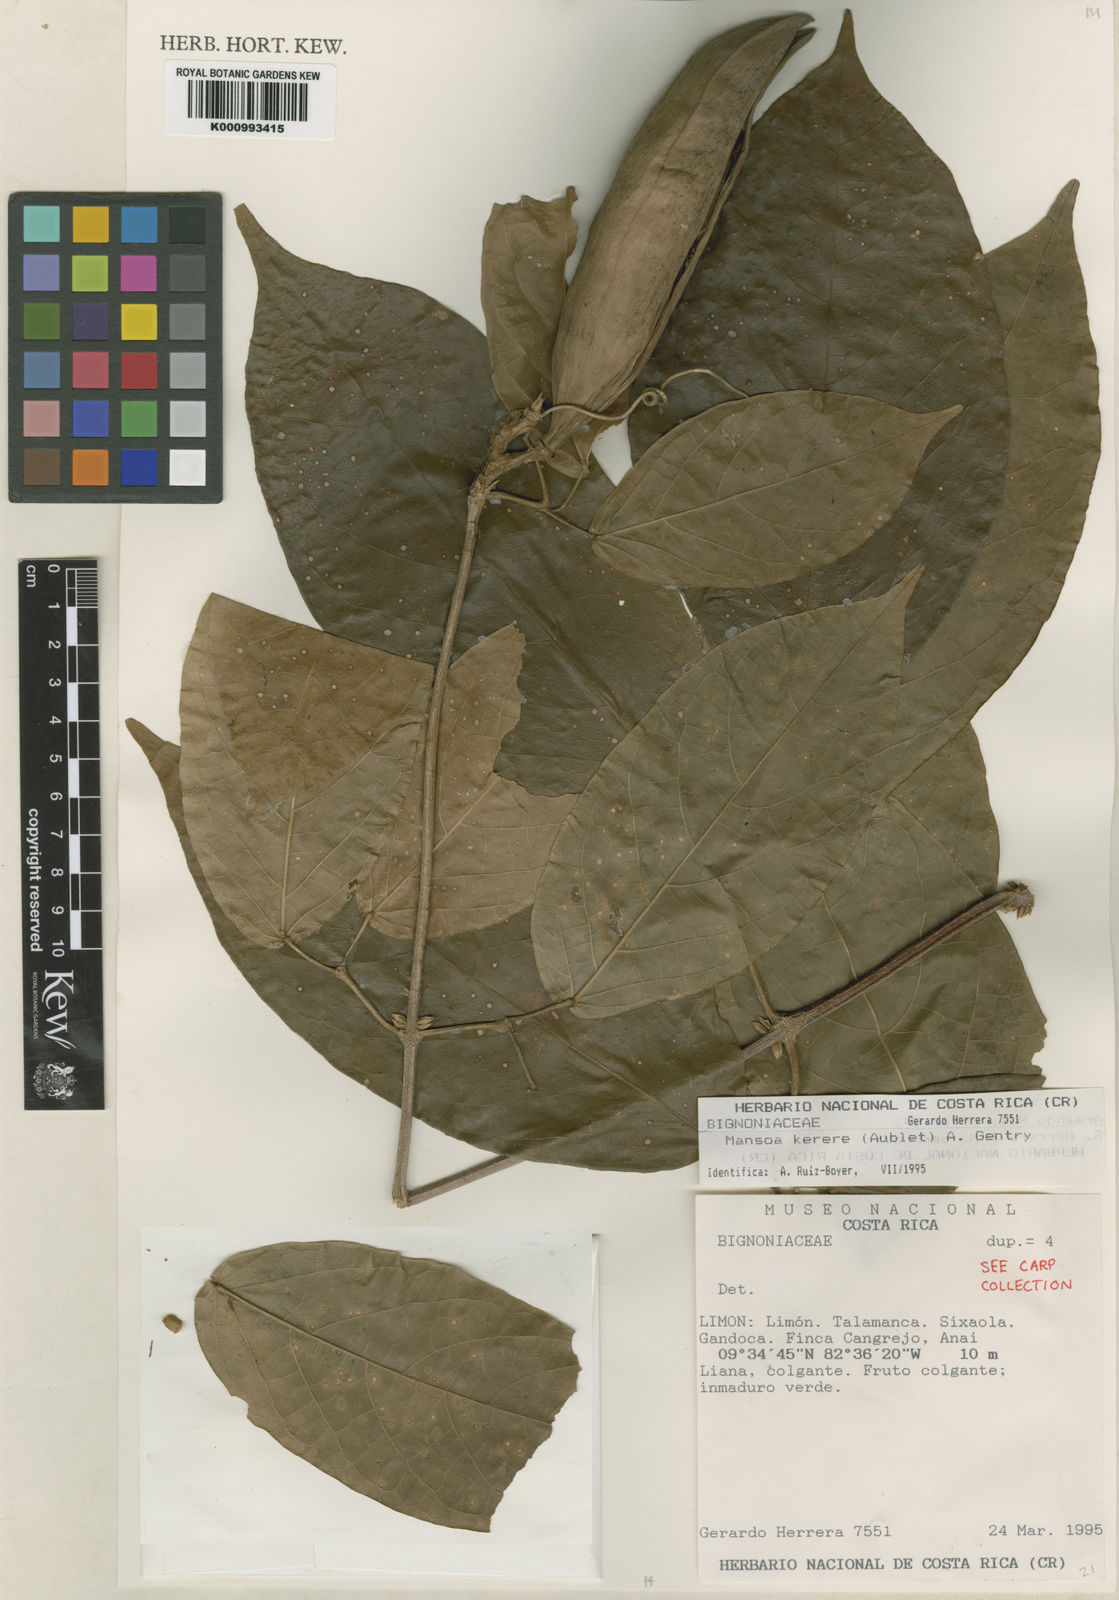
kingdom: Plantae
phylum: Tracheophyta
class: Magnoliopsida
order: Lamiales
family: Bignoniaceae
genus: Pachyptera
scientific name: Pachyptera kerere
